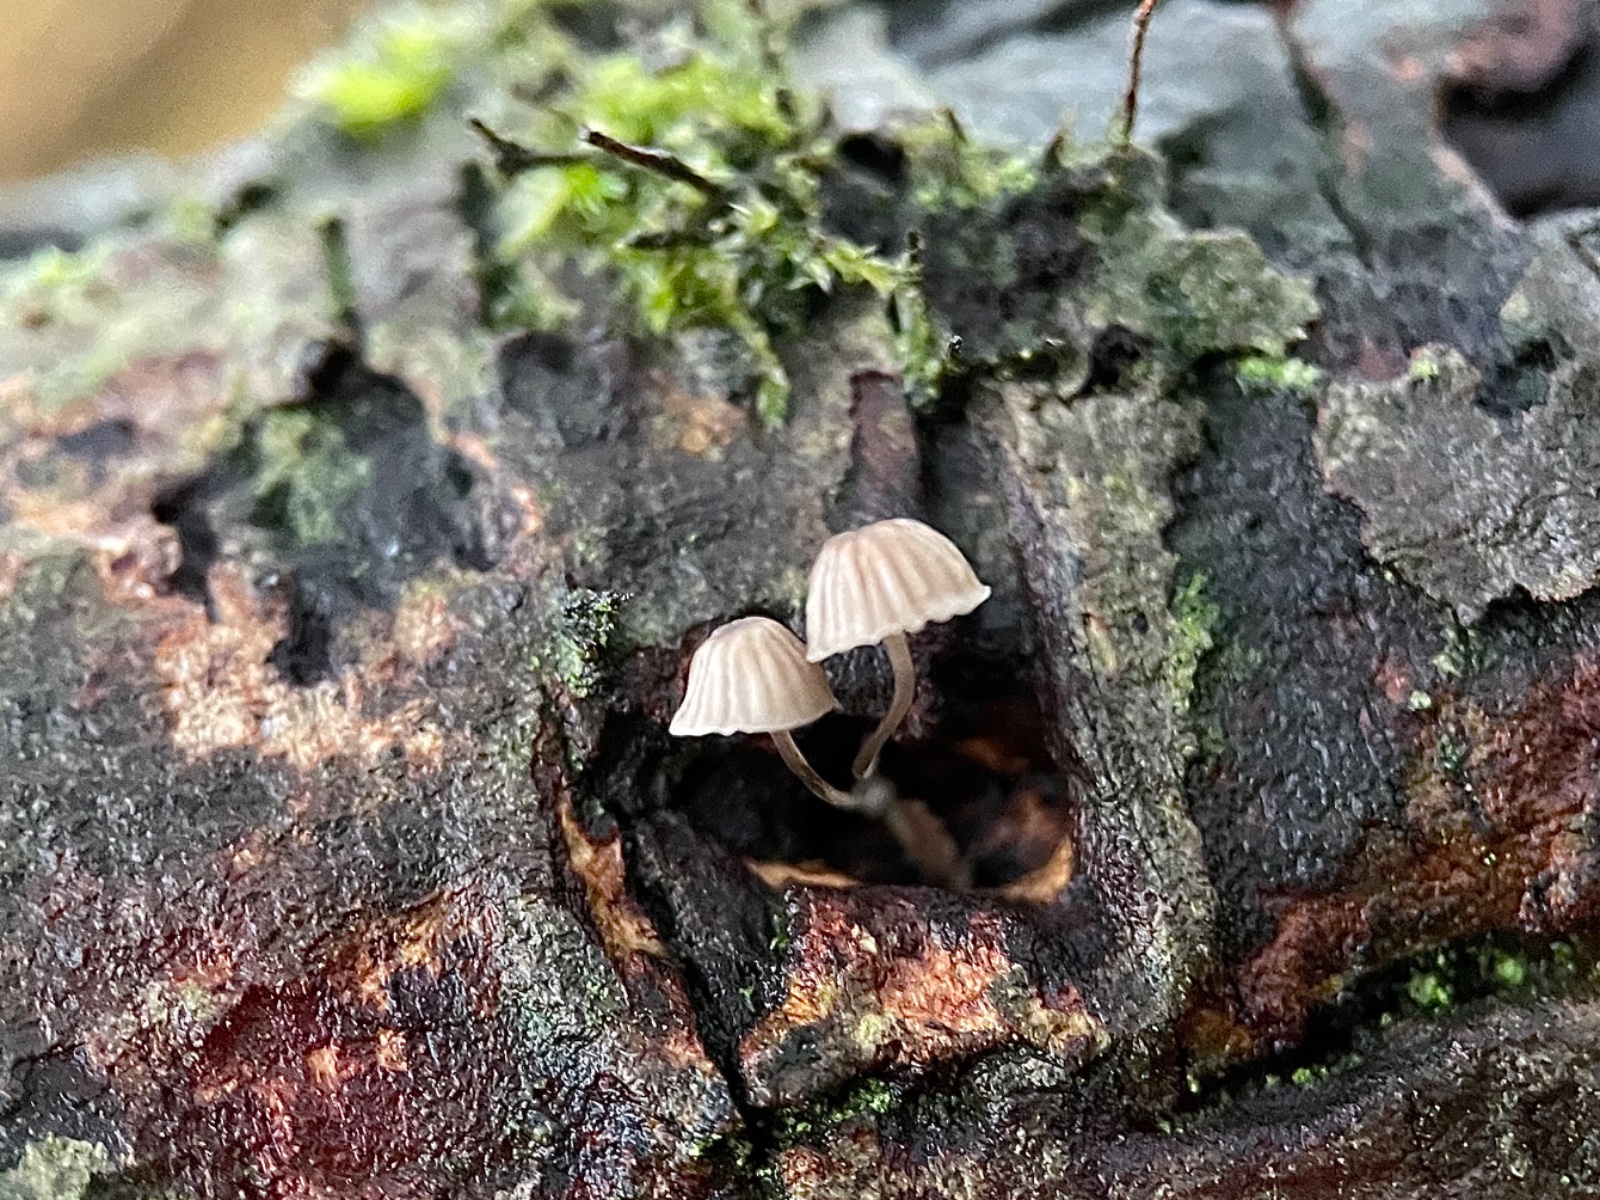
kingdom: Fungi
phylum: Basidiomycota
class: Agaricomycetes
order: Agaricales
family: Mycenaceae
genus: Mycena
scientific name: Mycena
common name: huesvamp
